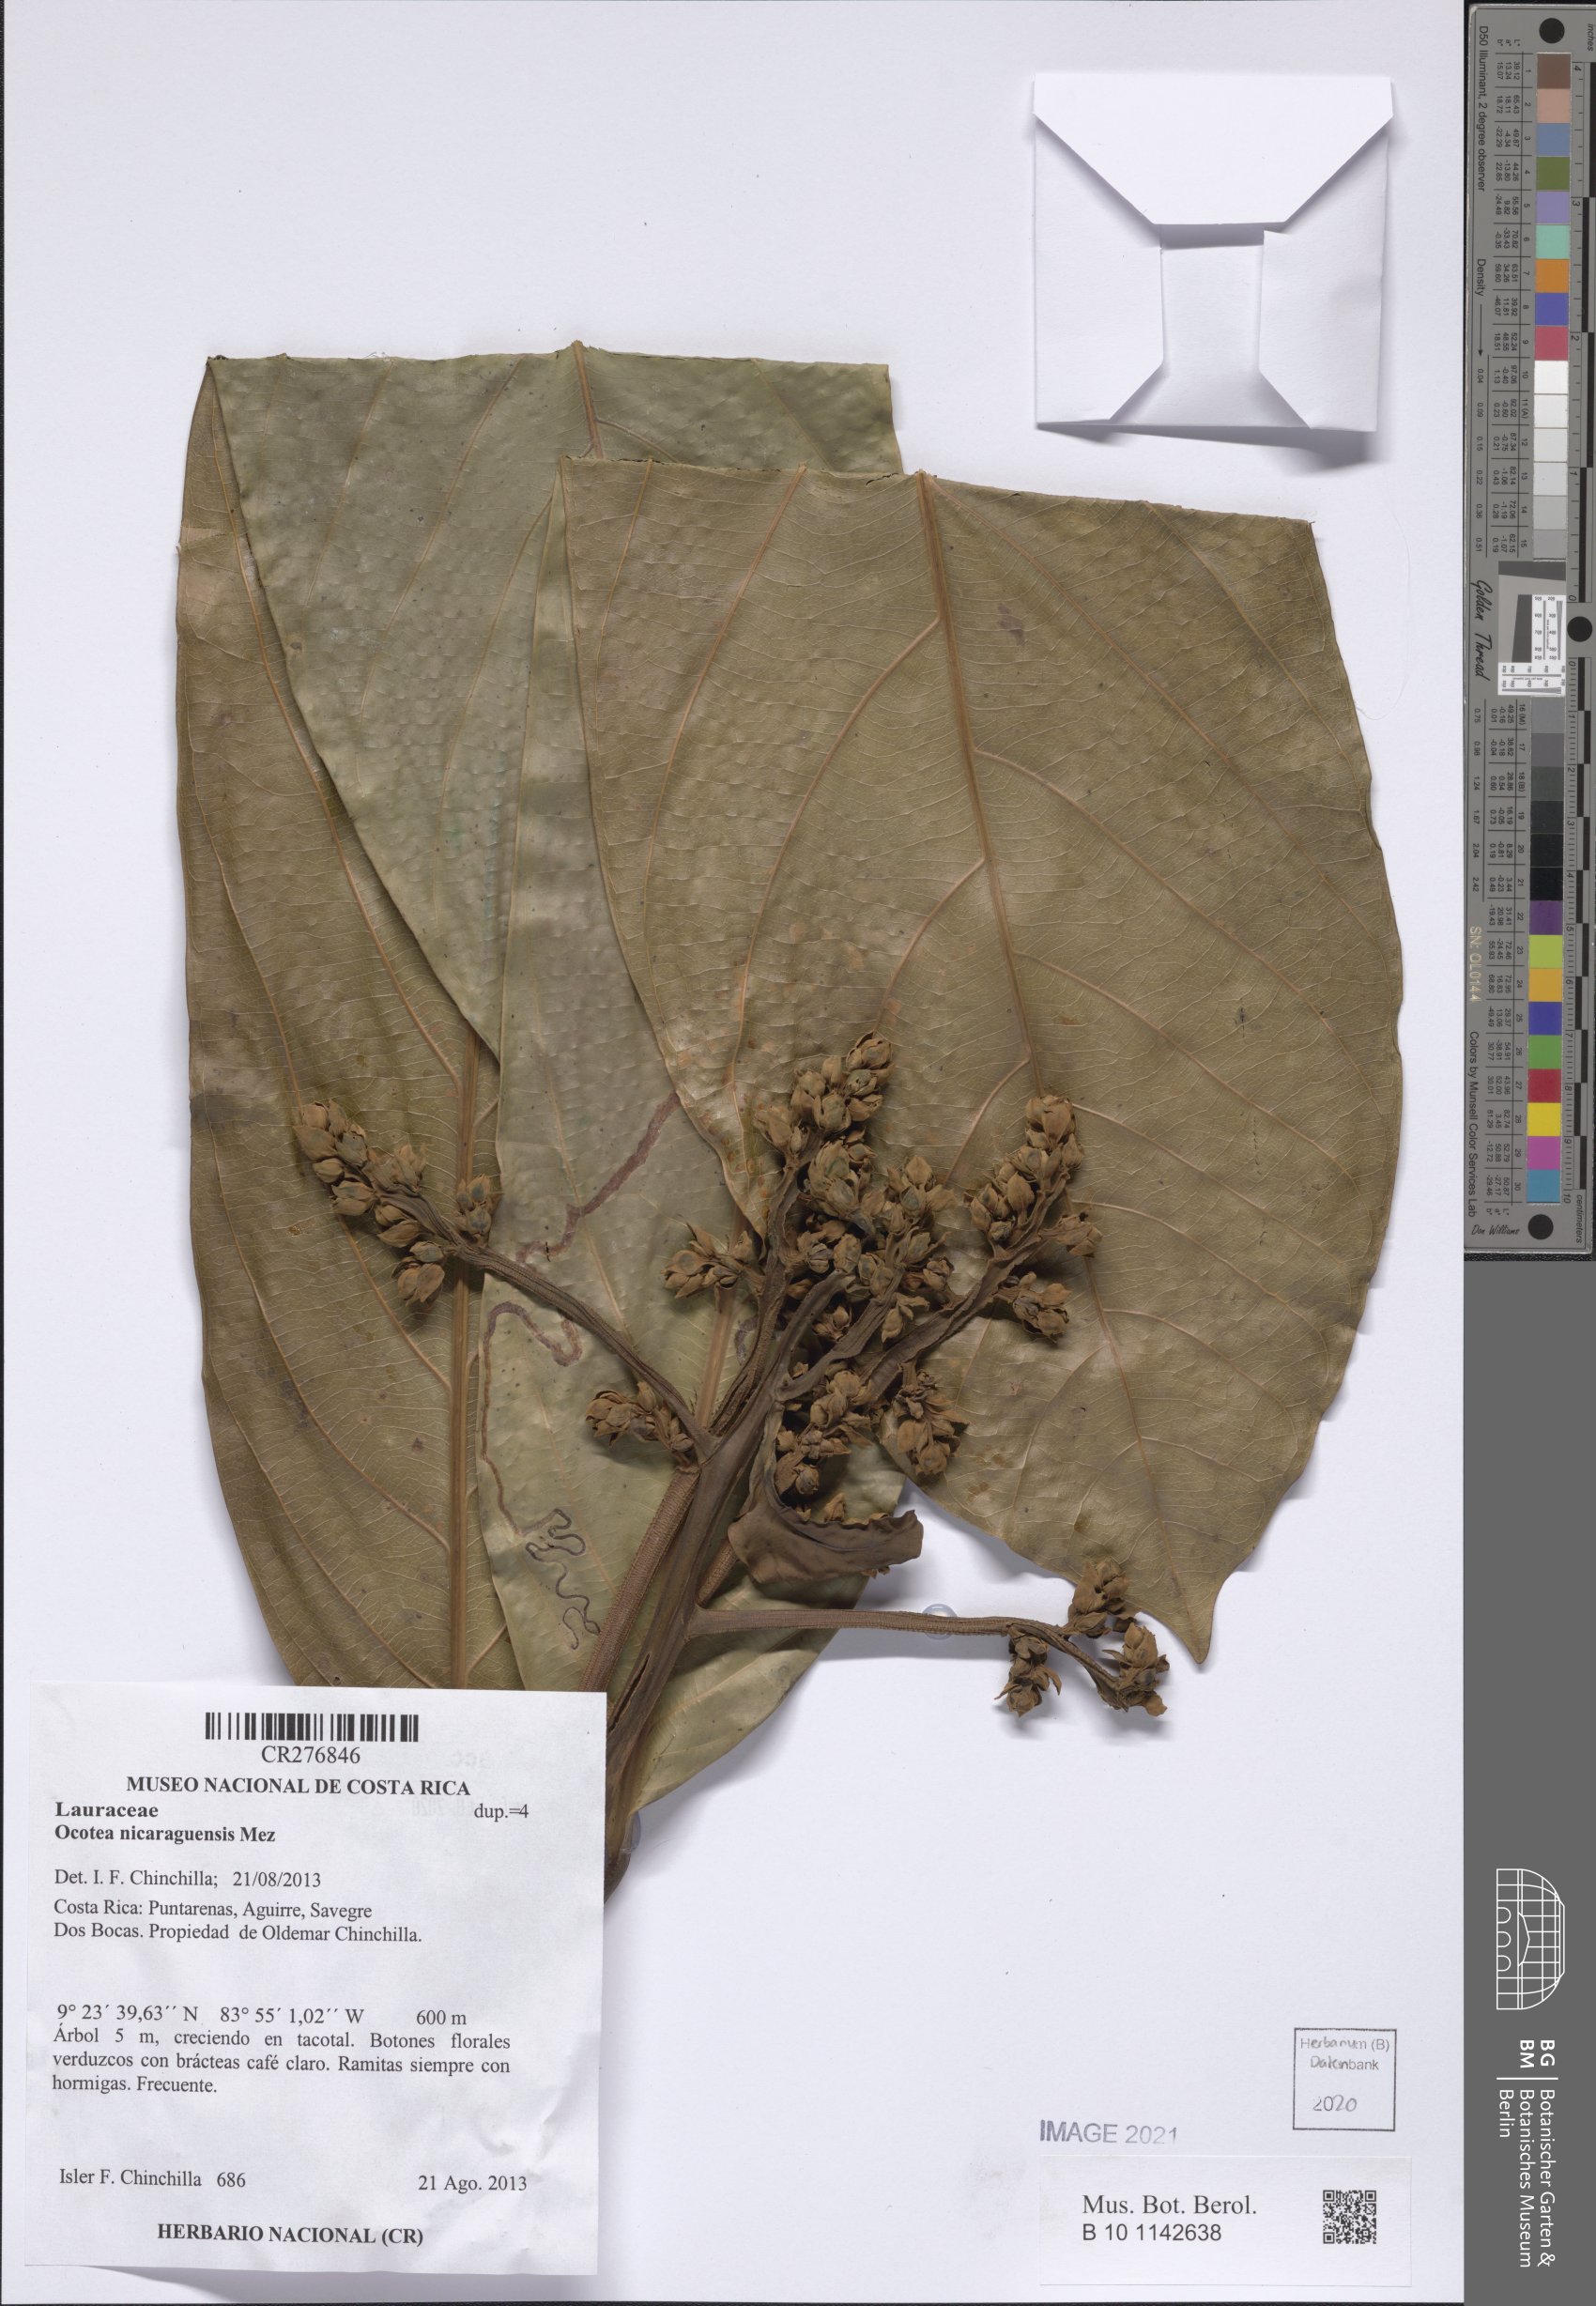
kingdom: Plantae
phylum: Tracheophyta
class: Magnoliopsida
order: Laurales
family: Lauraceae
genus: Ocotea
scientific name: Ocotea atirrensis
